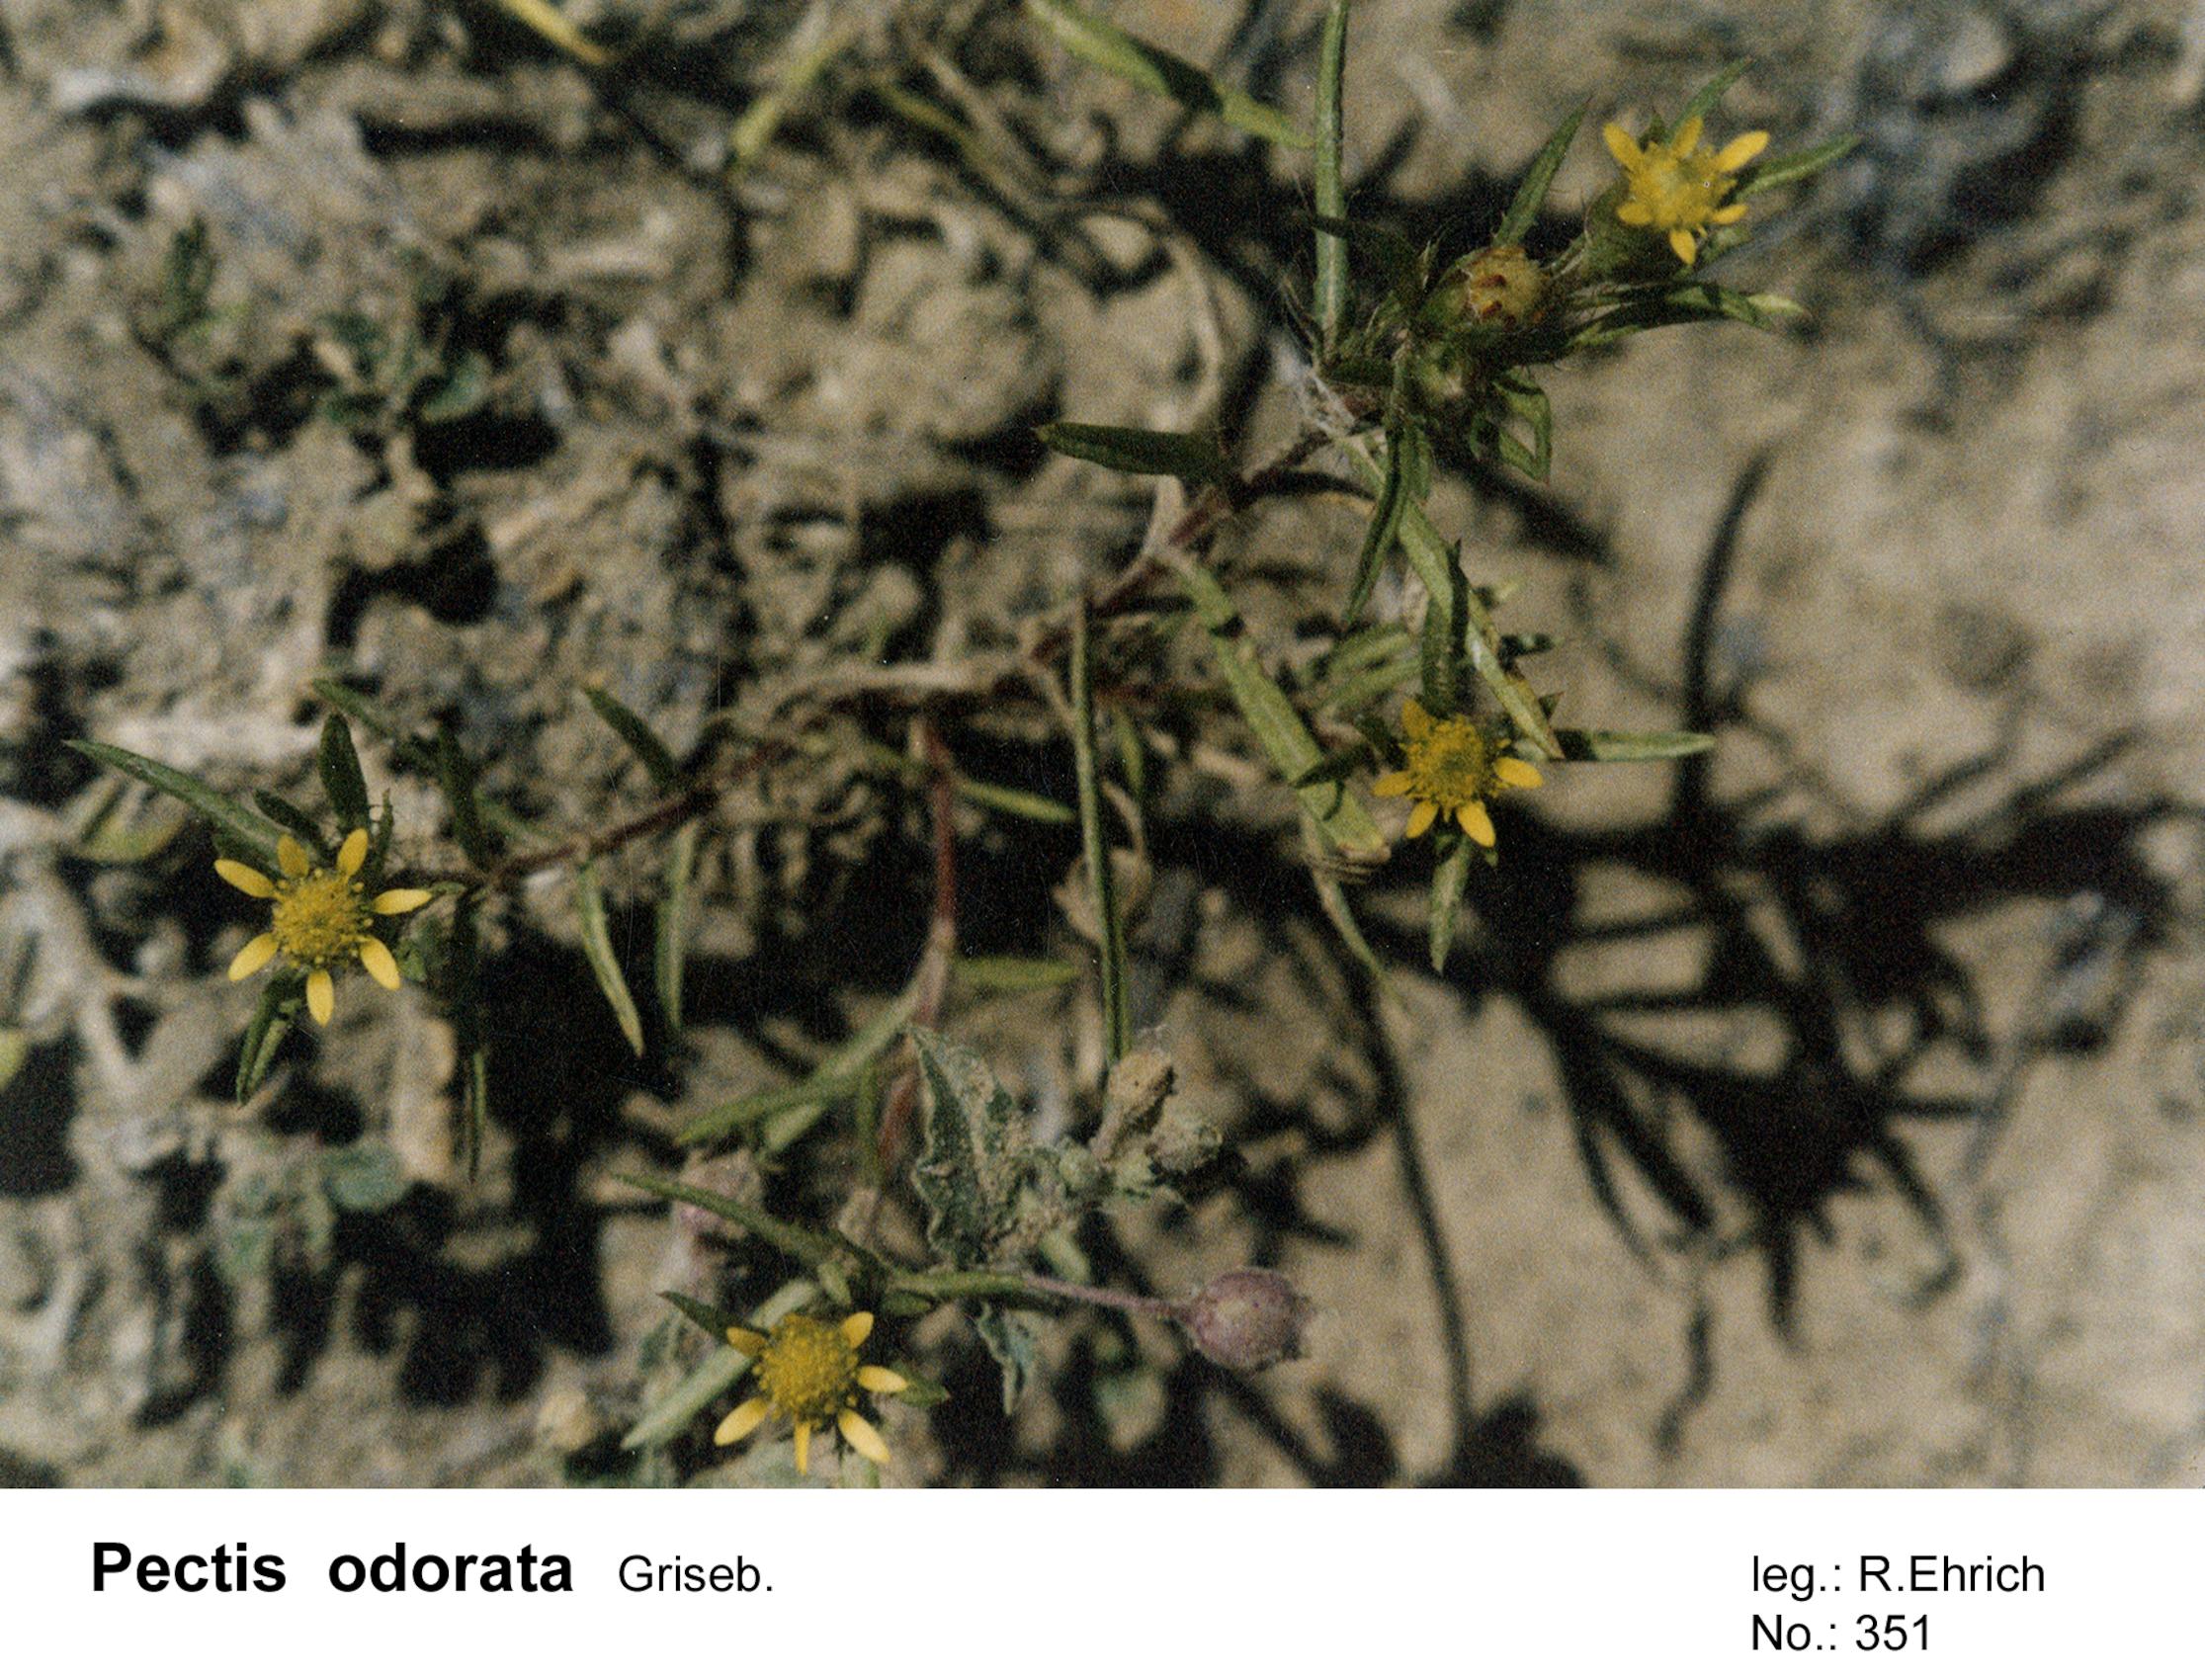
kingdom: Plantae
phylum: Tracheophyta
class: Magnoliopsida
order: Asterales
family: Asteraceae
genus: Pectis
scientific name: Pectis odorata
